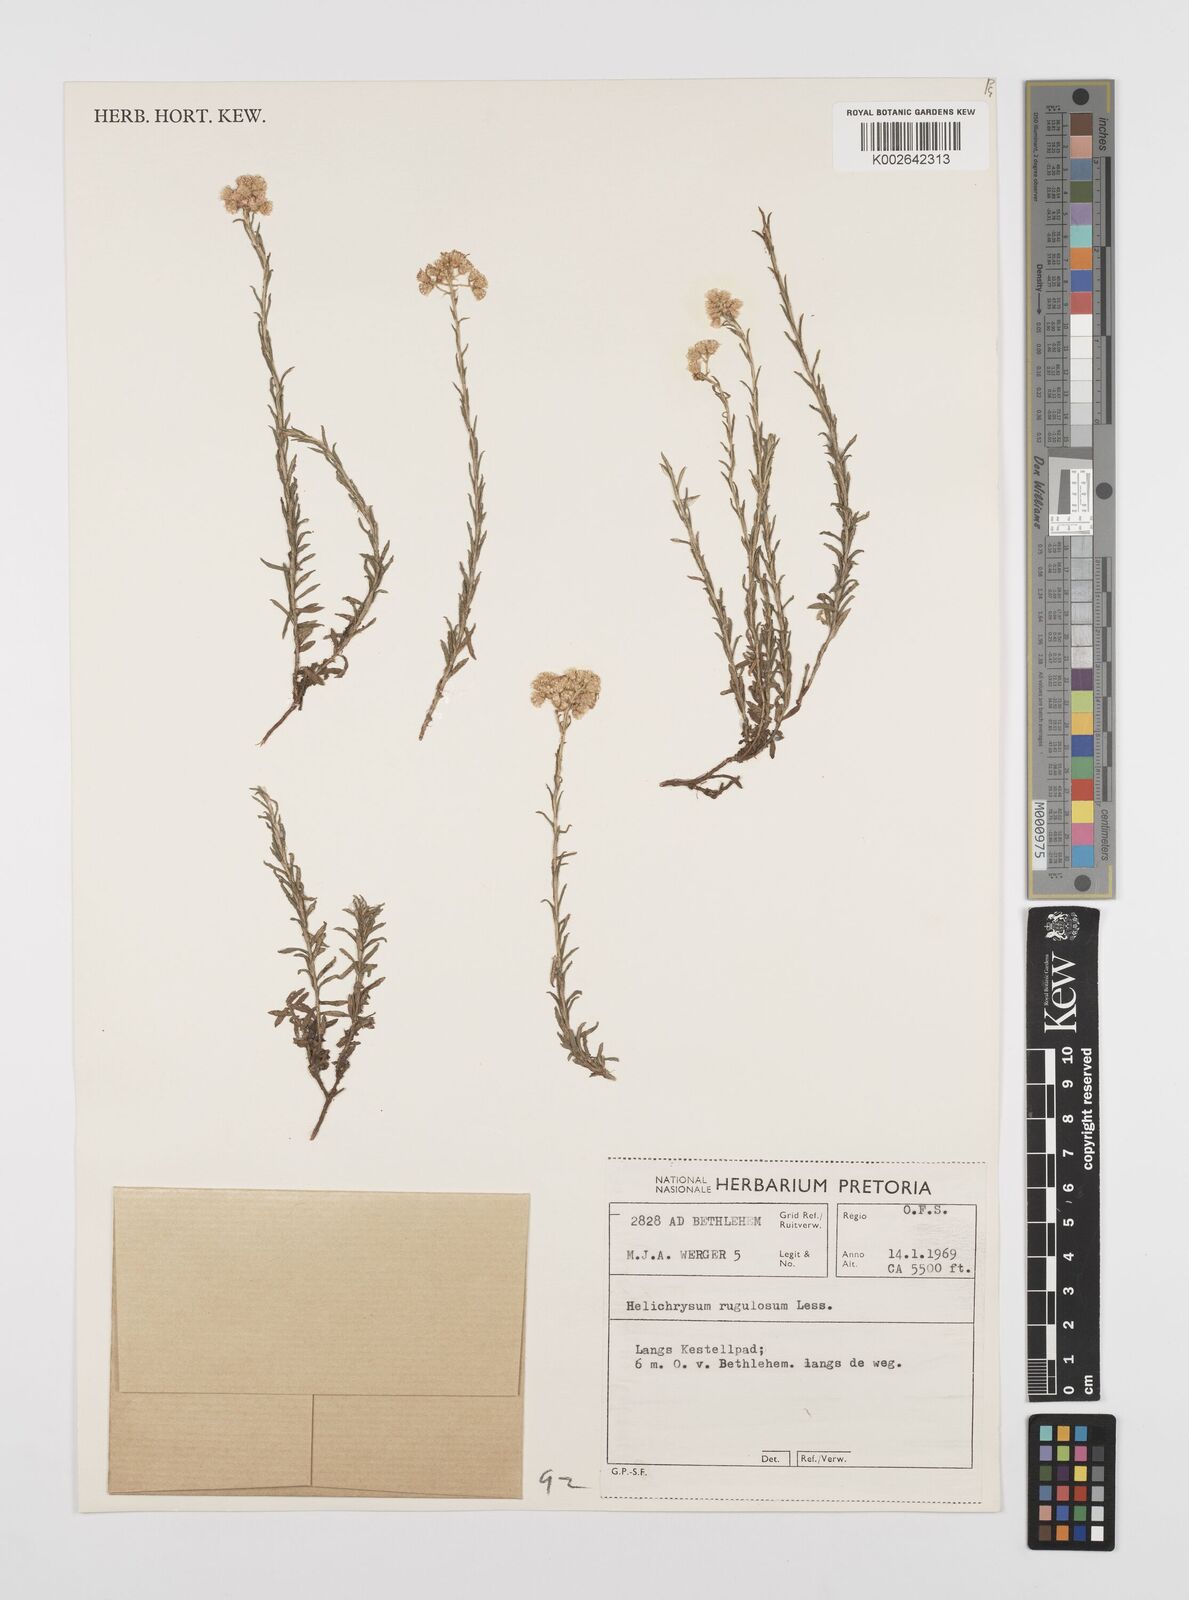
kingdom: Plantae
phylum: Tracheophyta
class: Magnoliopsida
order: Asterales
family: Asteraceae
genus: Helichrysum
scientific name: Helichrysum rugulosum
